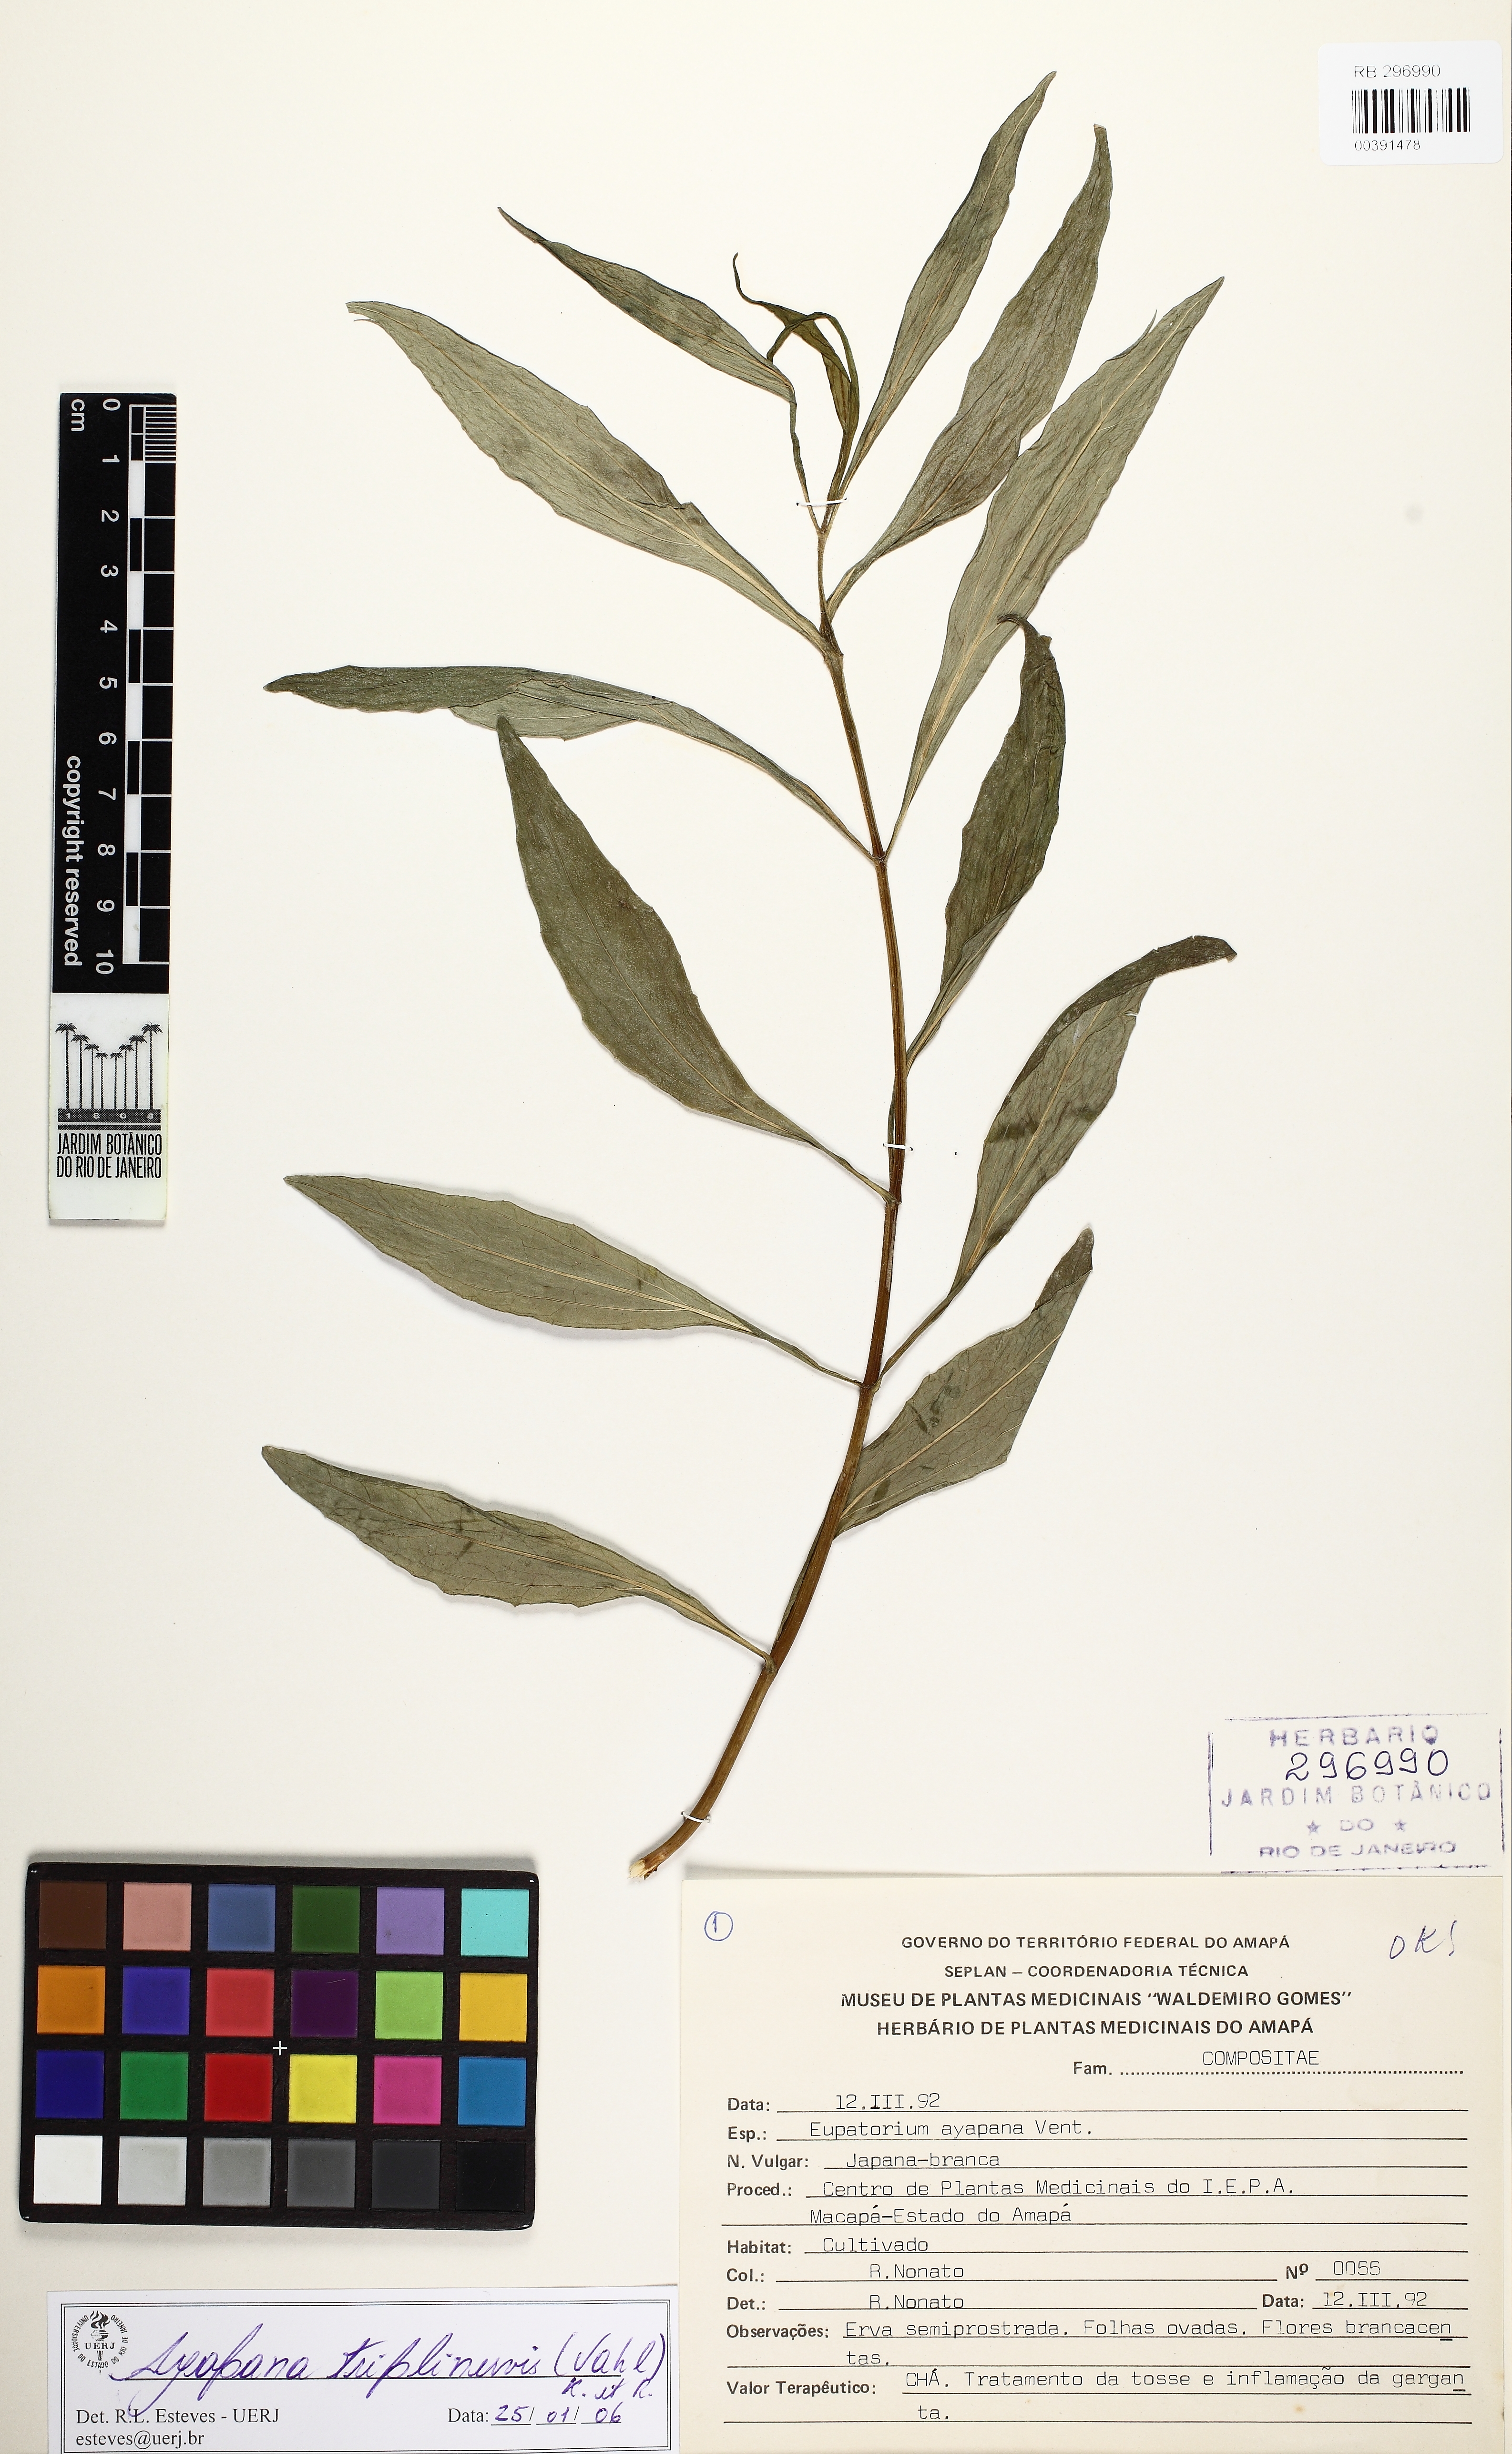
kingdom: Plantae
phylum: Tracheophyta
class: Magnoliopsida
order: Asterales
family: Asteraceae
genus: Ayapana
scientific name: Ayapana triplinervis
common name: Triplinerved eupatorium
